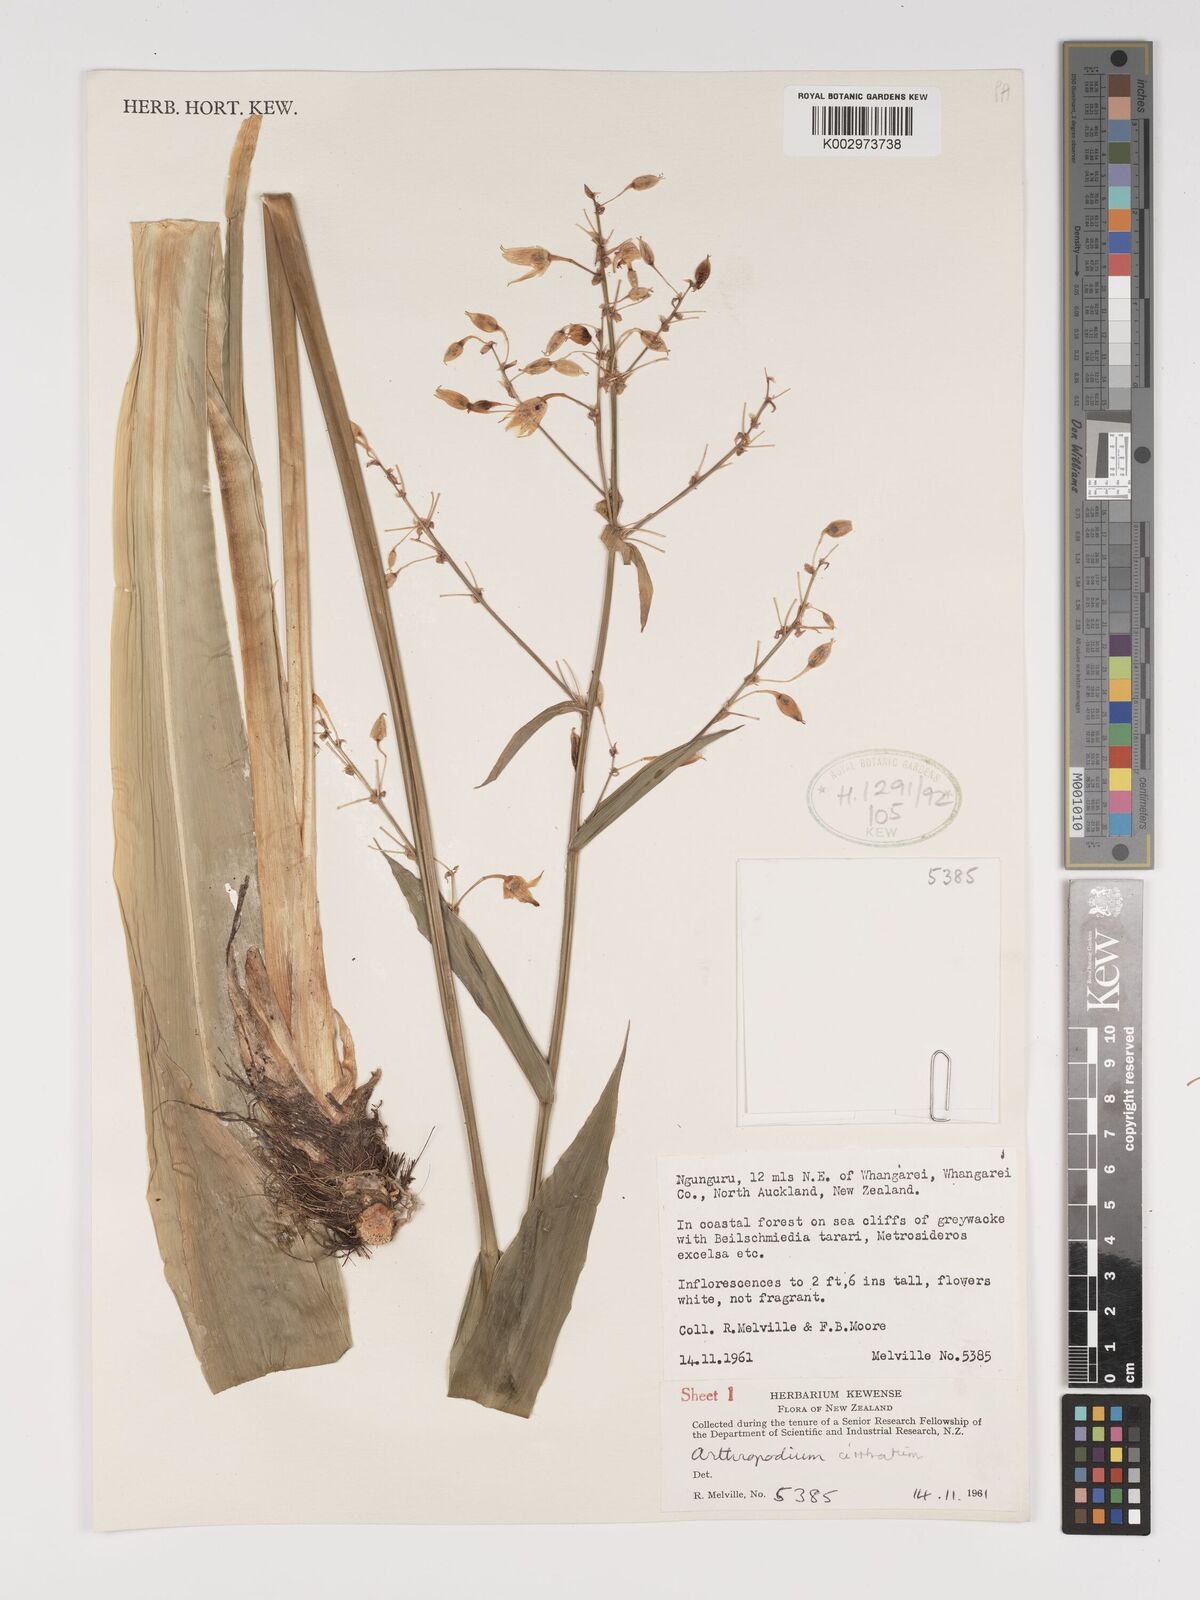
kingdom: Plantae
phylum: Tracheophyta
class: Liliopsida
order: Asparagales
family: Asparagaceae
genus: Arthropodium
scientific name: Arthropodium cirratum
